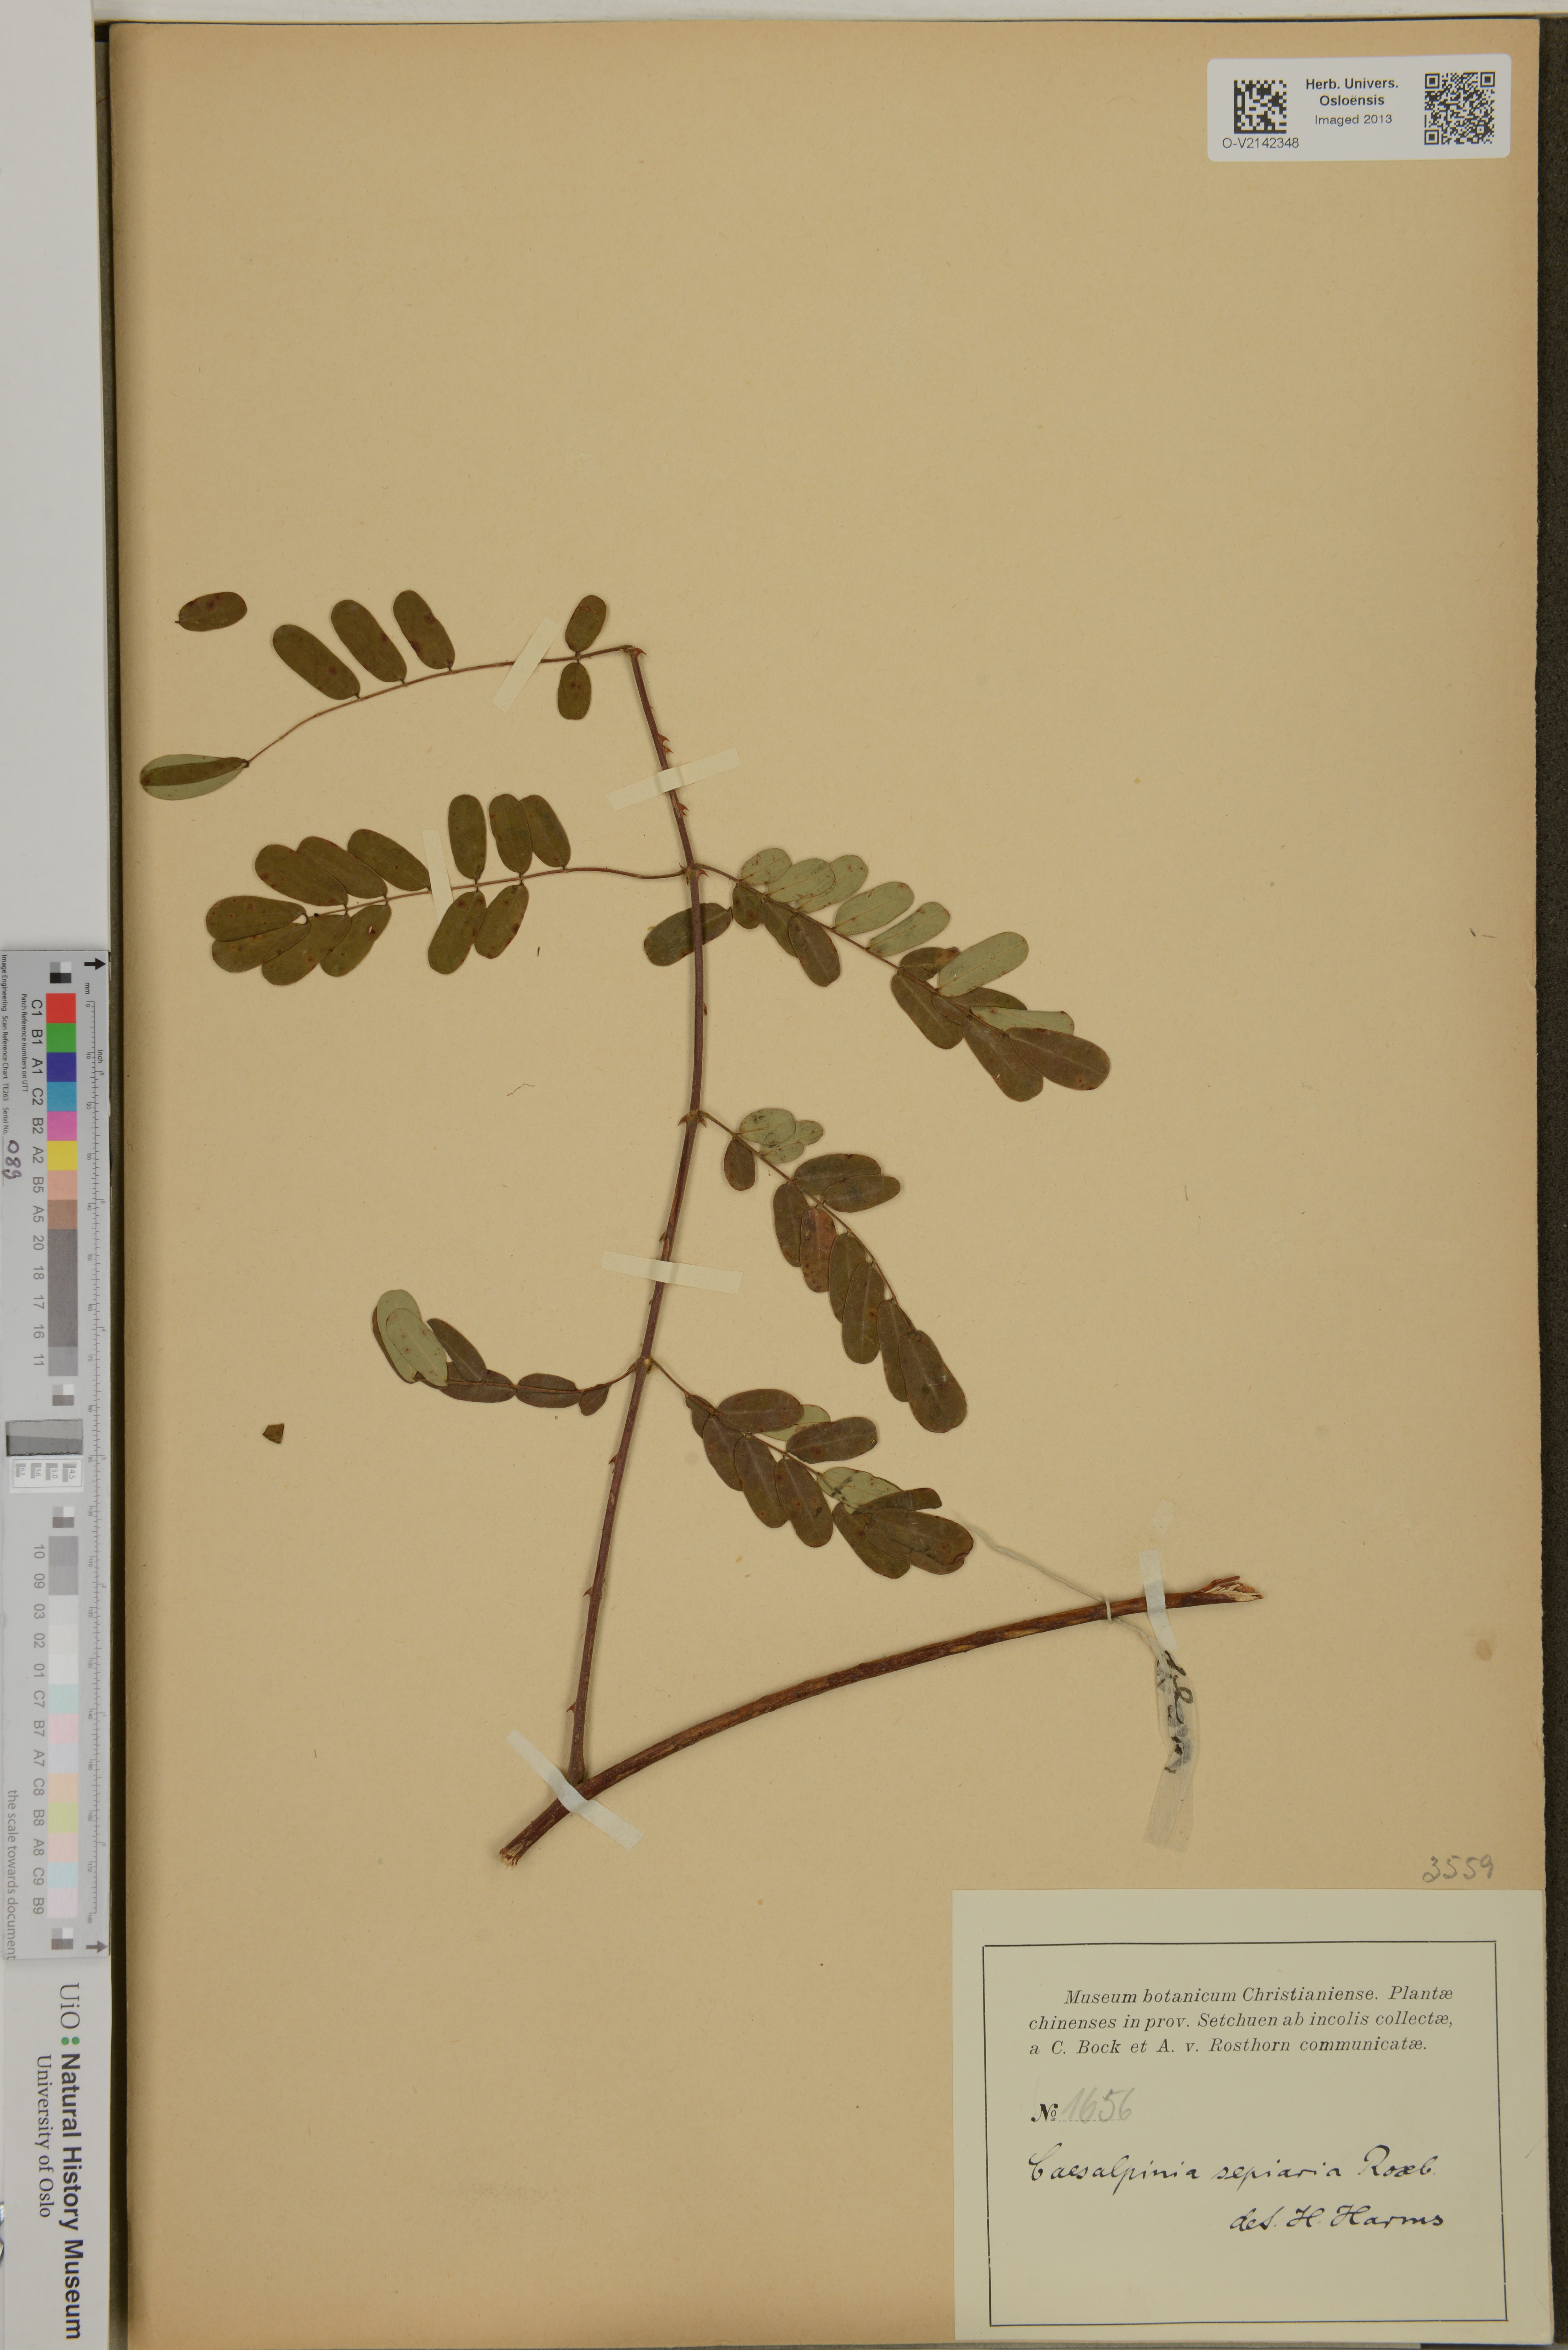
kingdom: Plantae
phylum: Tracheophyta
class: Magnoliopsida
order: Fabales
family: Fabaceae
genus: Biancaea
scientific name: Biancaea decapetala
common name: Cat's claw
